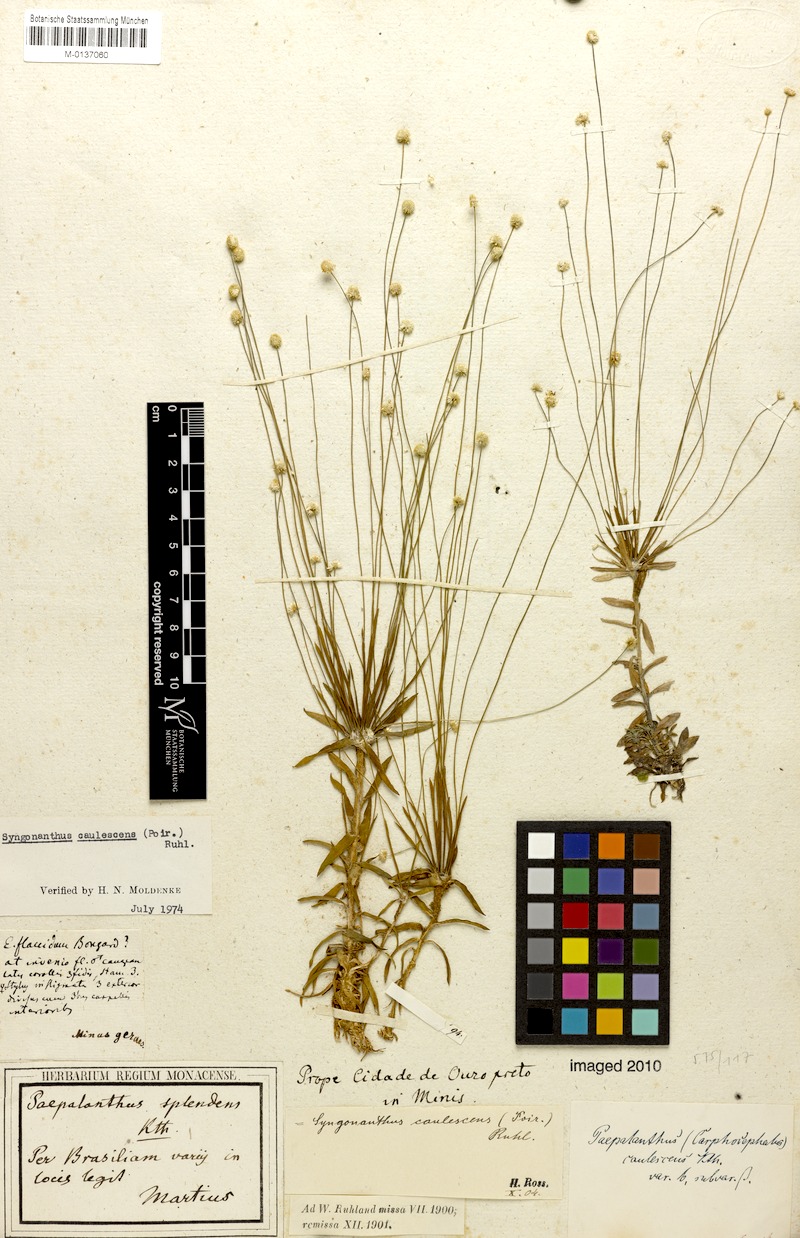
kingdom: Plantae
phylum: Tracheophyta
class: Liliopsida
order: Poales
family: Eriocaulaceae
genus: Syngonanthus
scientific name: Syngonanthus caulescens
